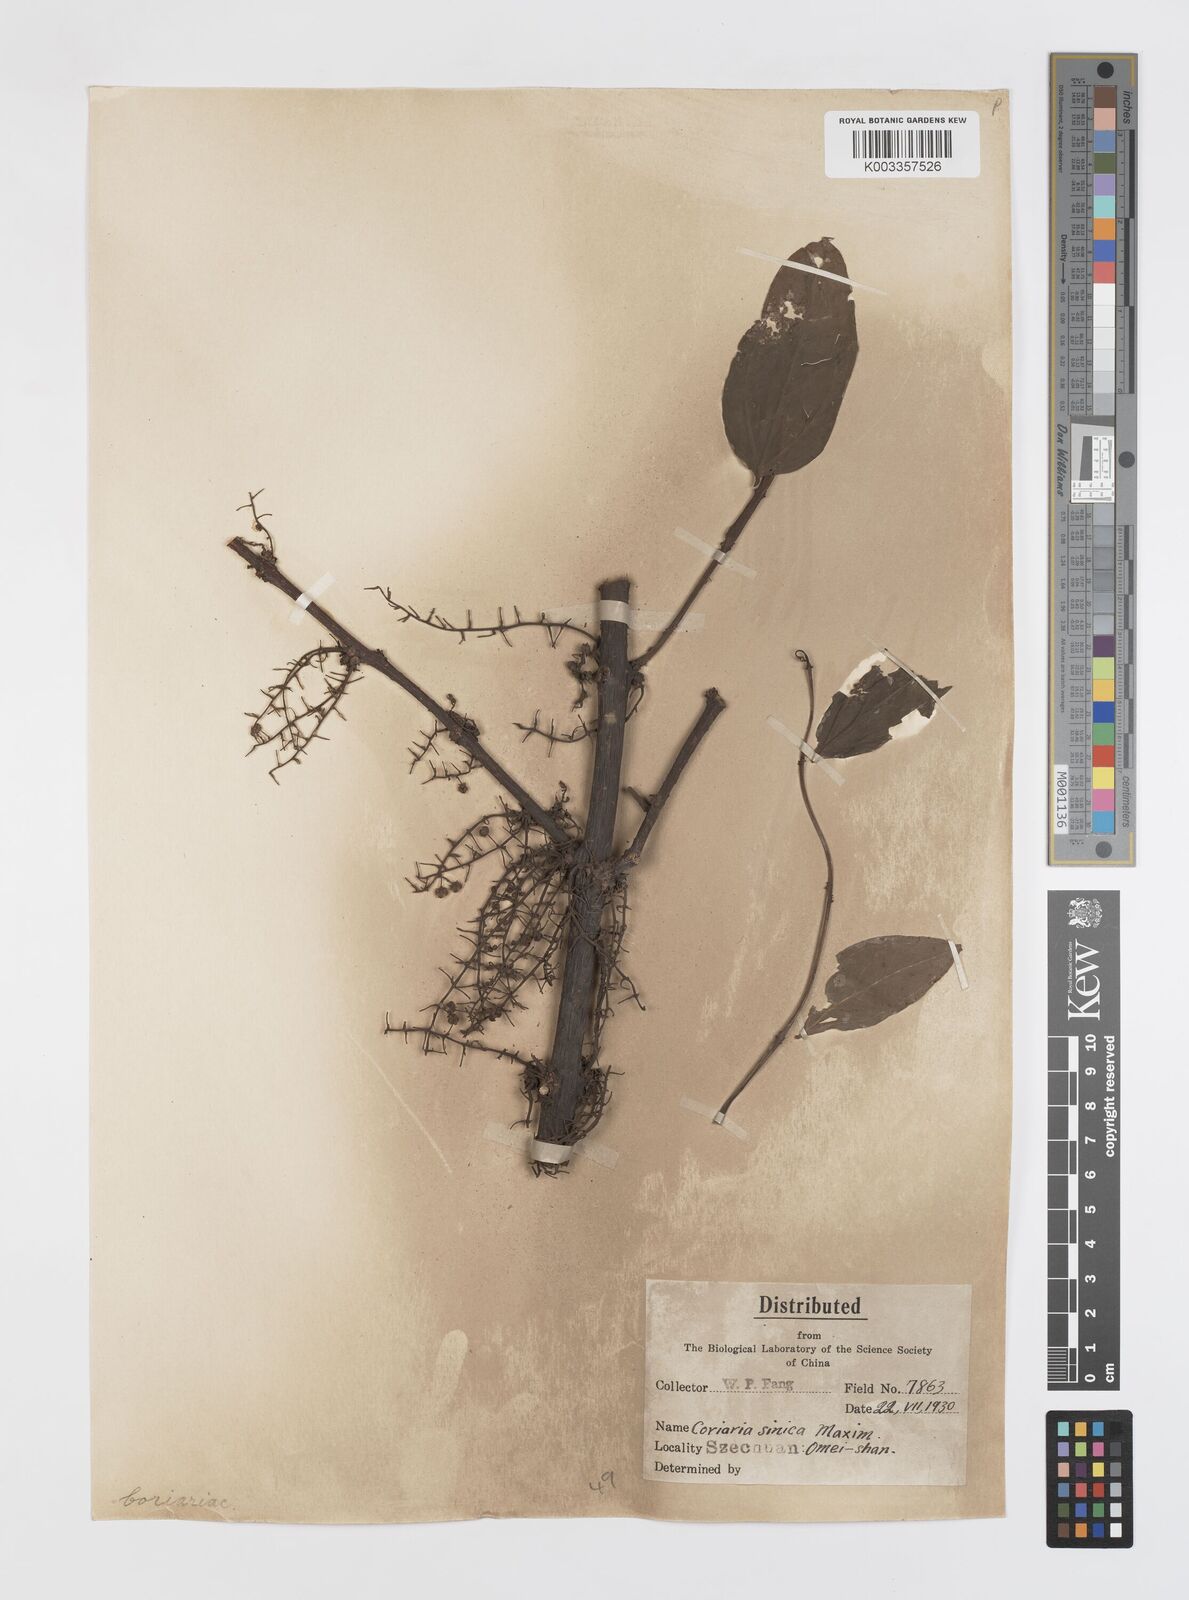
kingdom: Plantae
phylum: Tracheophyta
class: Magnoliopsida
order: Cucurbitales
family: Coriariaceae
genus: Coriaria
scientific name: Coriaria napalensis
